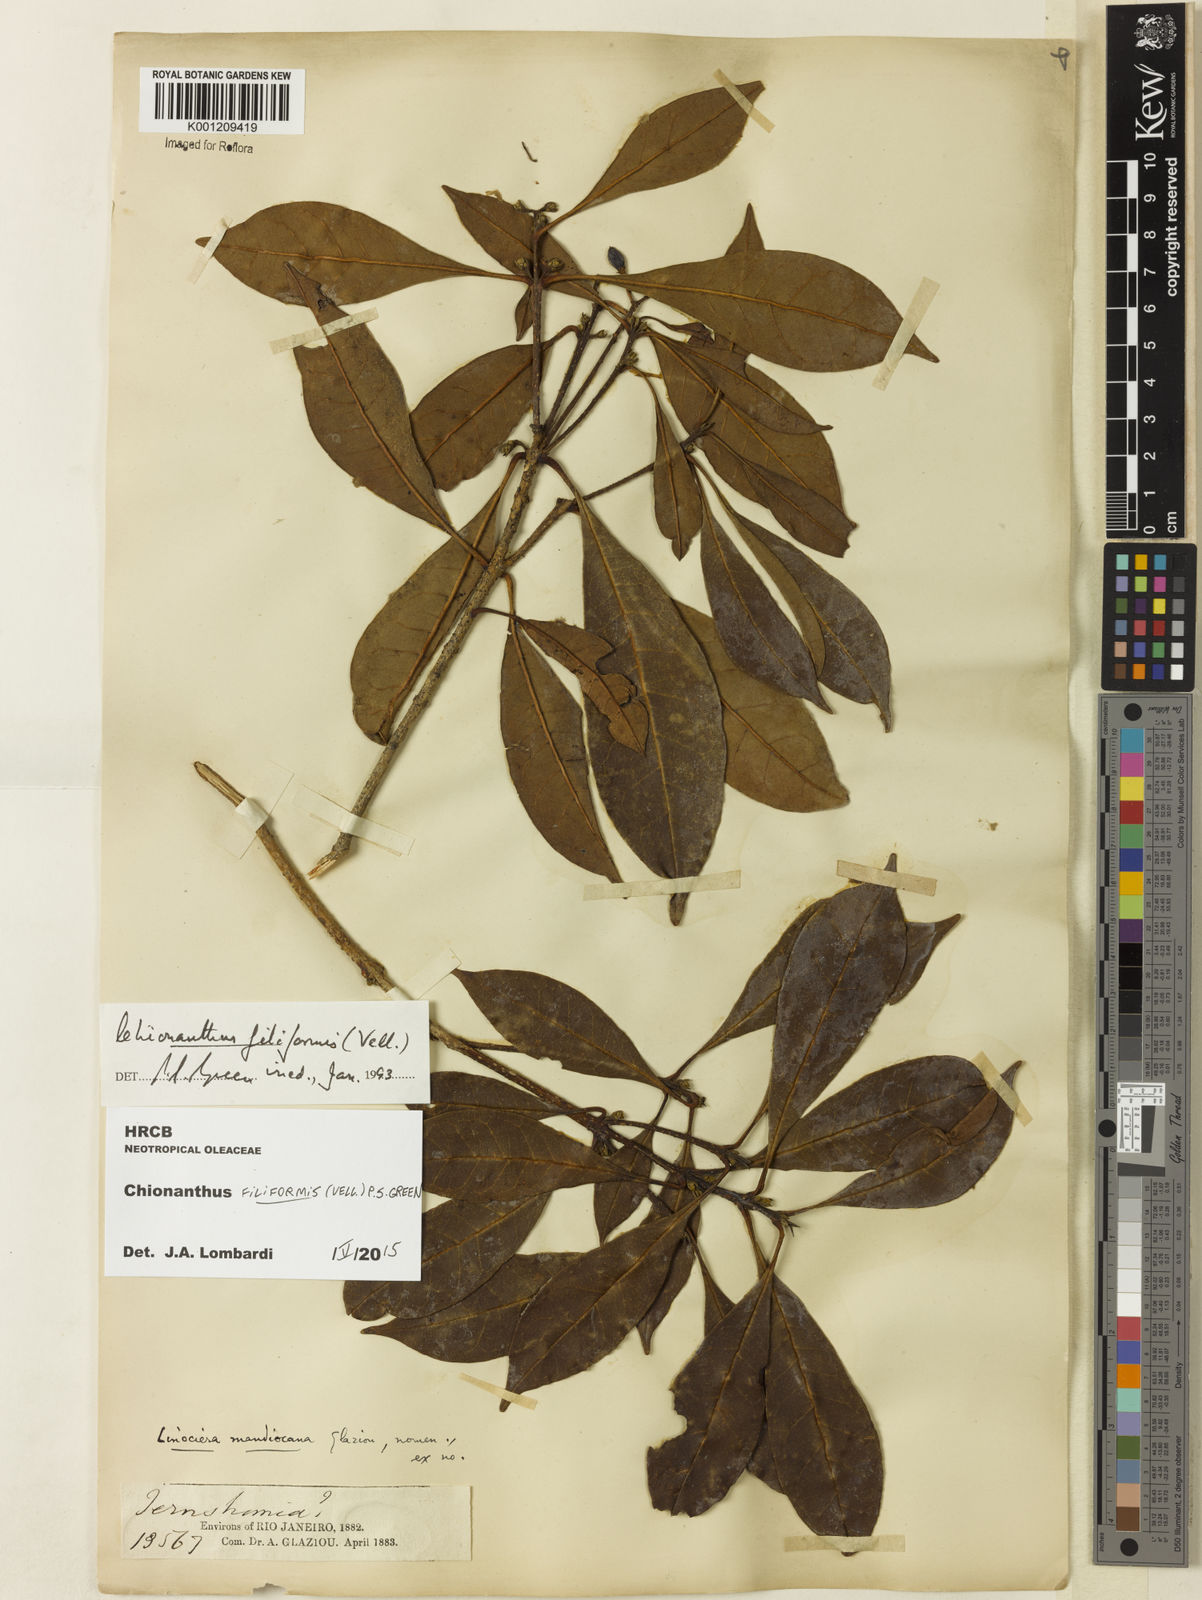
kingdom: Plantae
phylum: Tracheophyta
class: Magnoliopsida
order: Lamiales
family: Oleaceae
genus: Chionanthus
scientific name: Chionanthus filiformis
